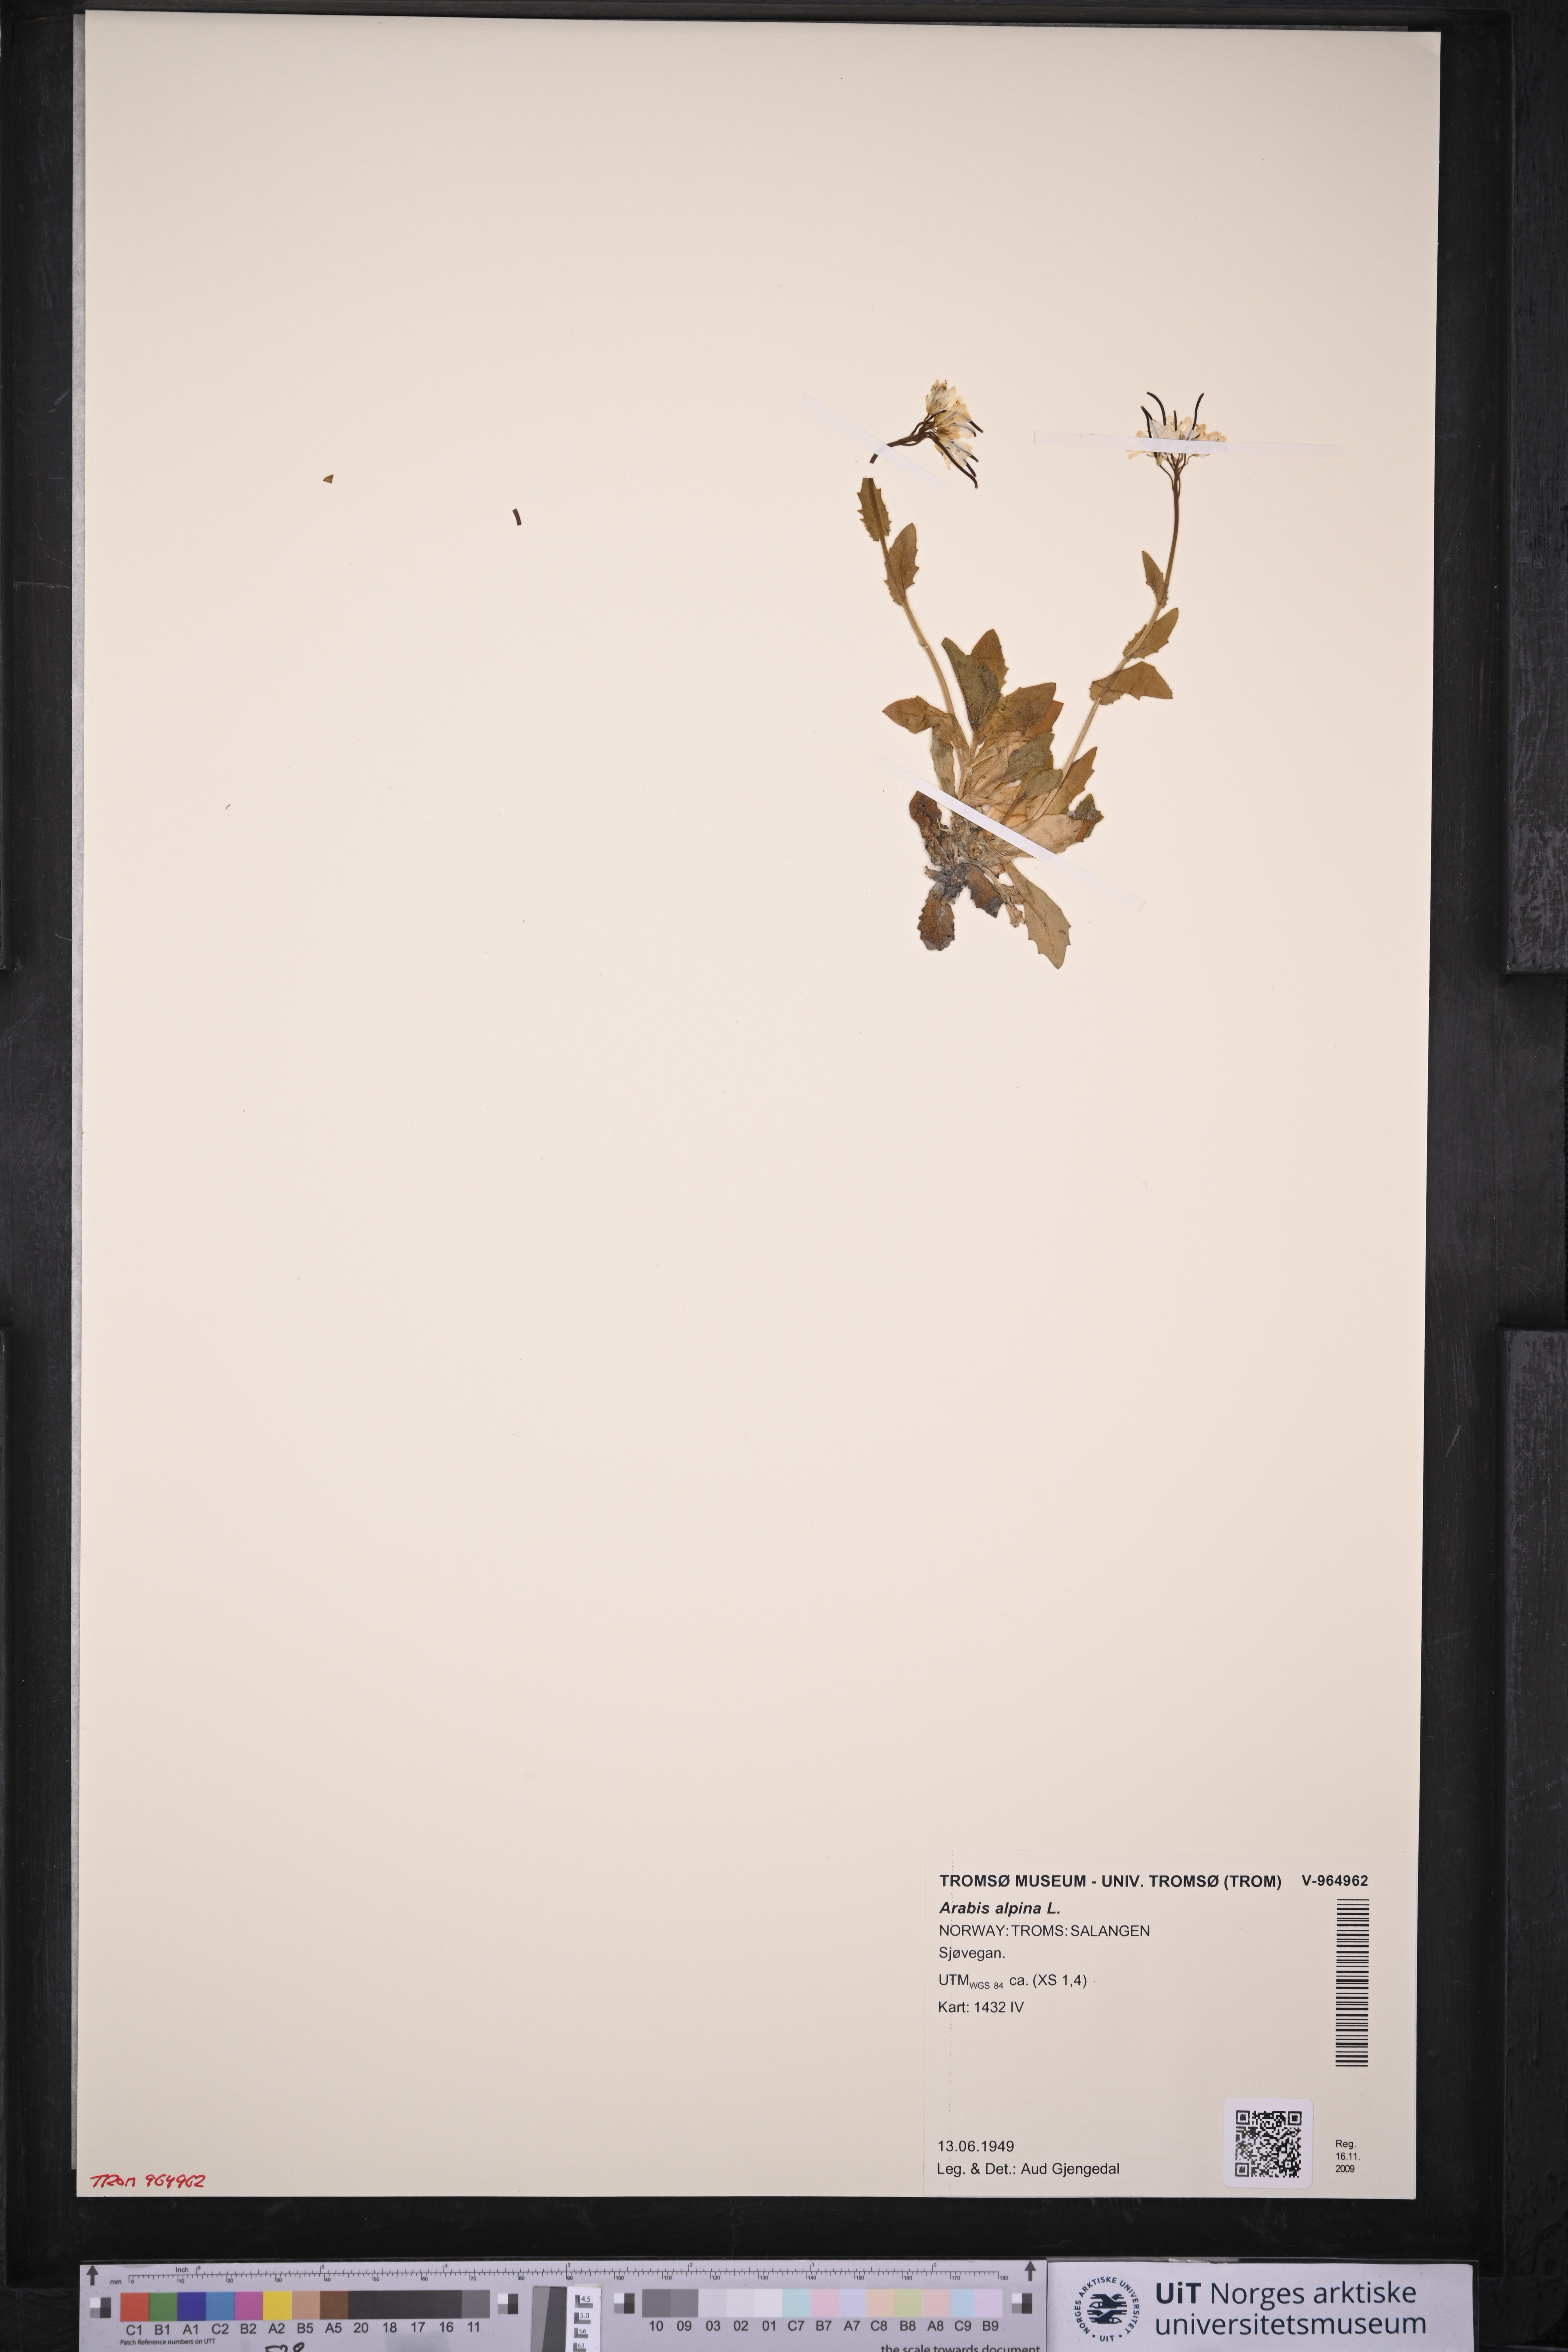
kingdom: Plantae
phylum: Tracheophyta
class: Magnoliopsida
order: Brassicales
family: Brassicaceae
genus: Arabis
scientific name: Arabis alpina
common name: Alpine rock-cress
